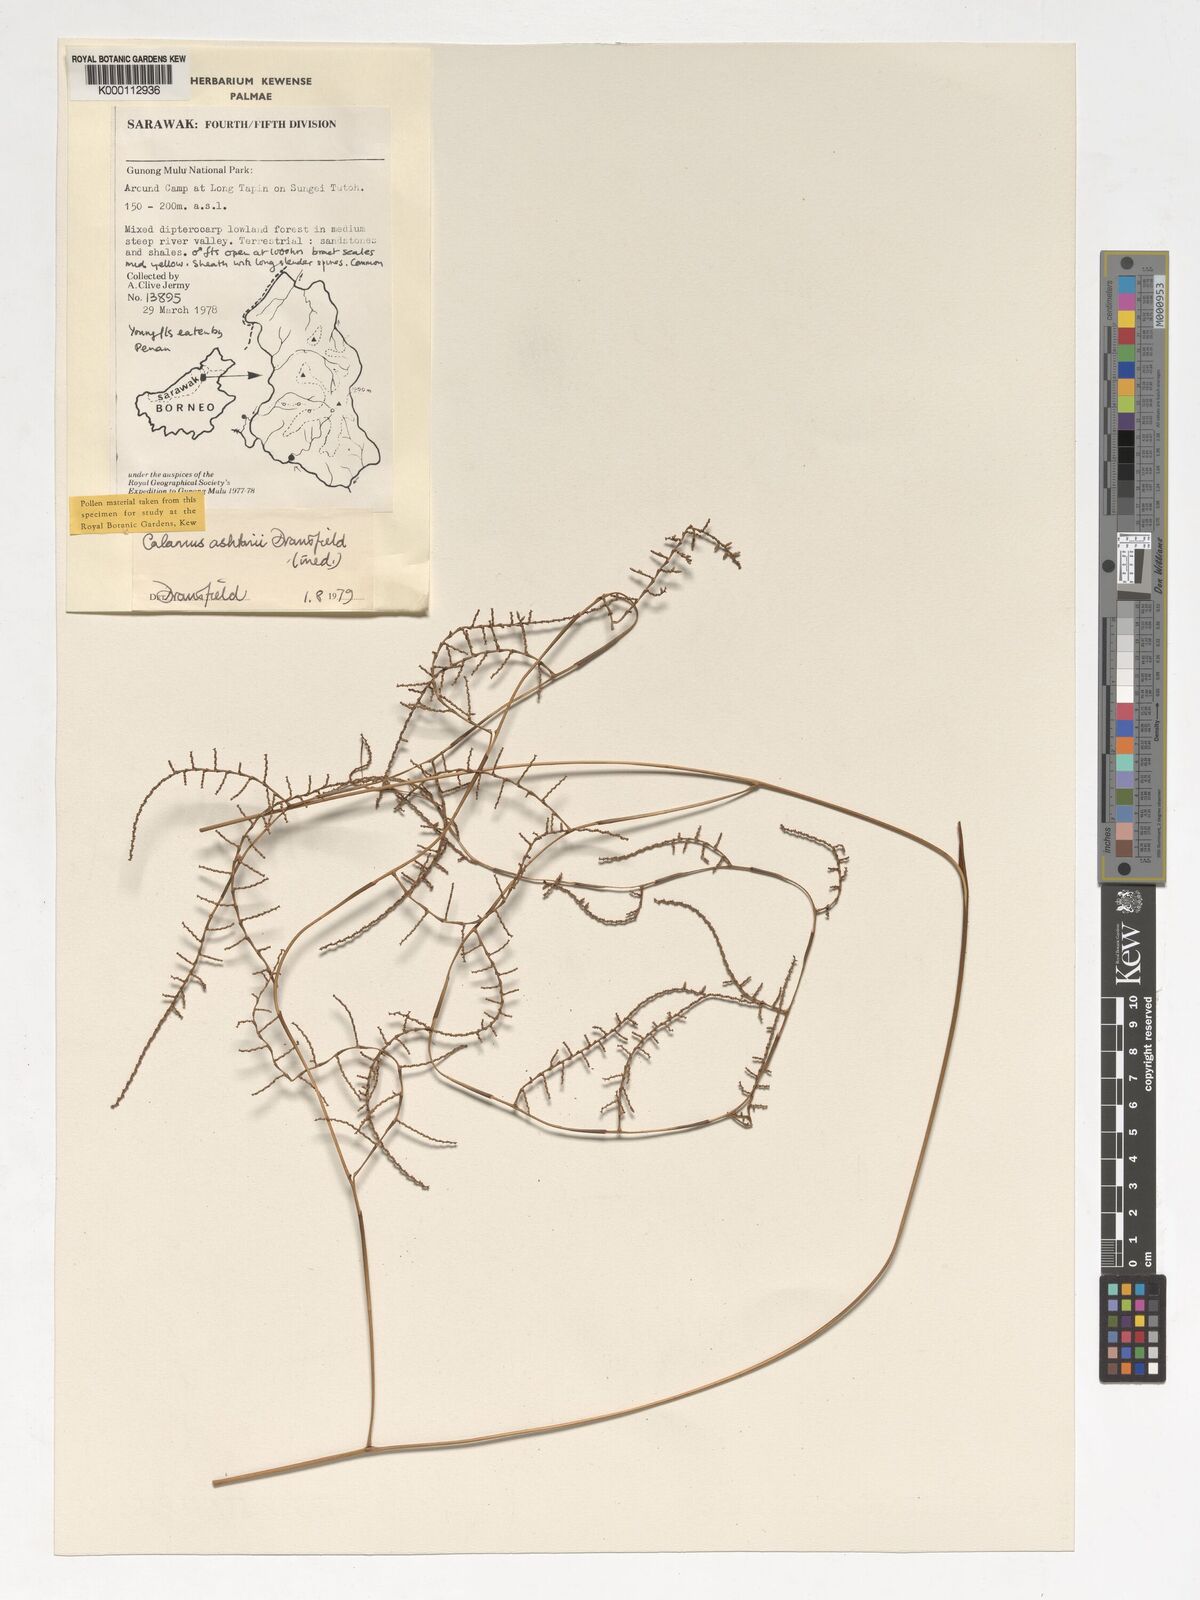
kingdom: Plantae
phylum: Tracheophyta
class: Liliopsida
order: Arecales
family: Arecaceae
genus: Calamus
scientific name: Calamus ashtonii
